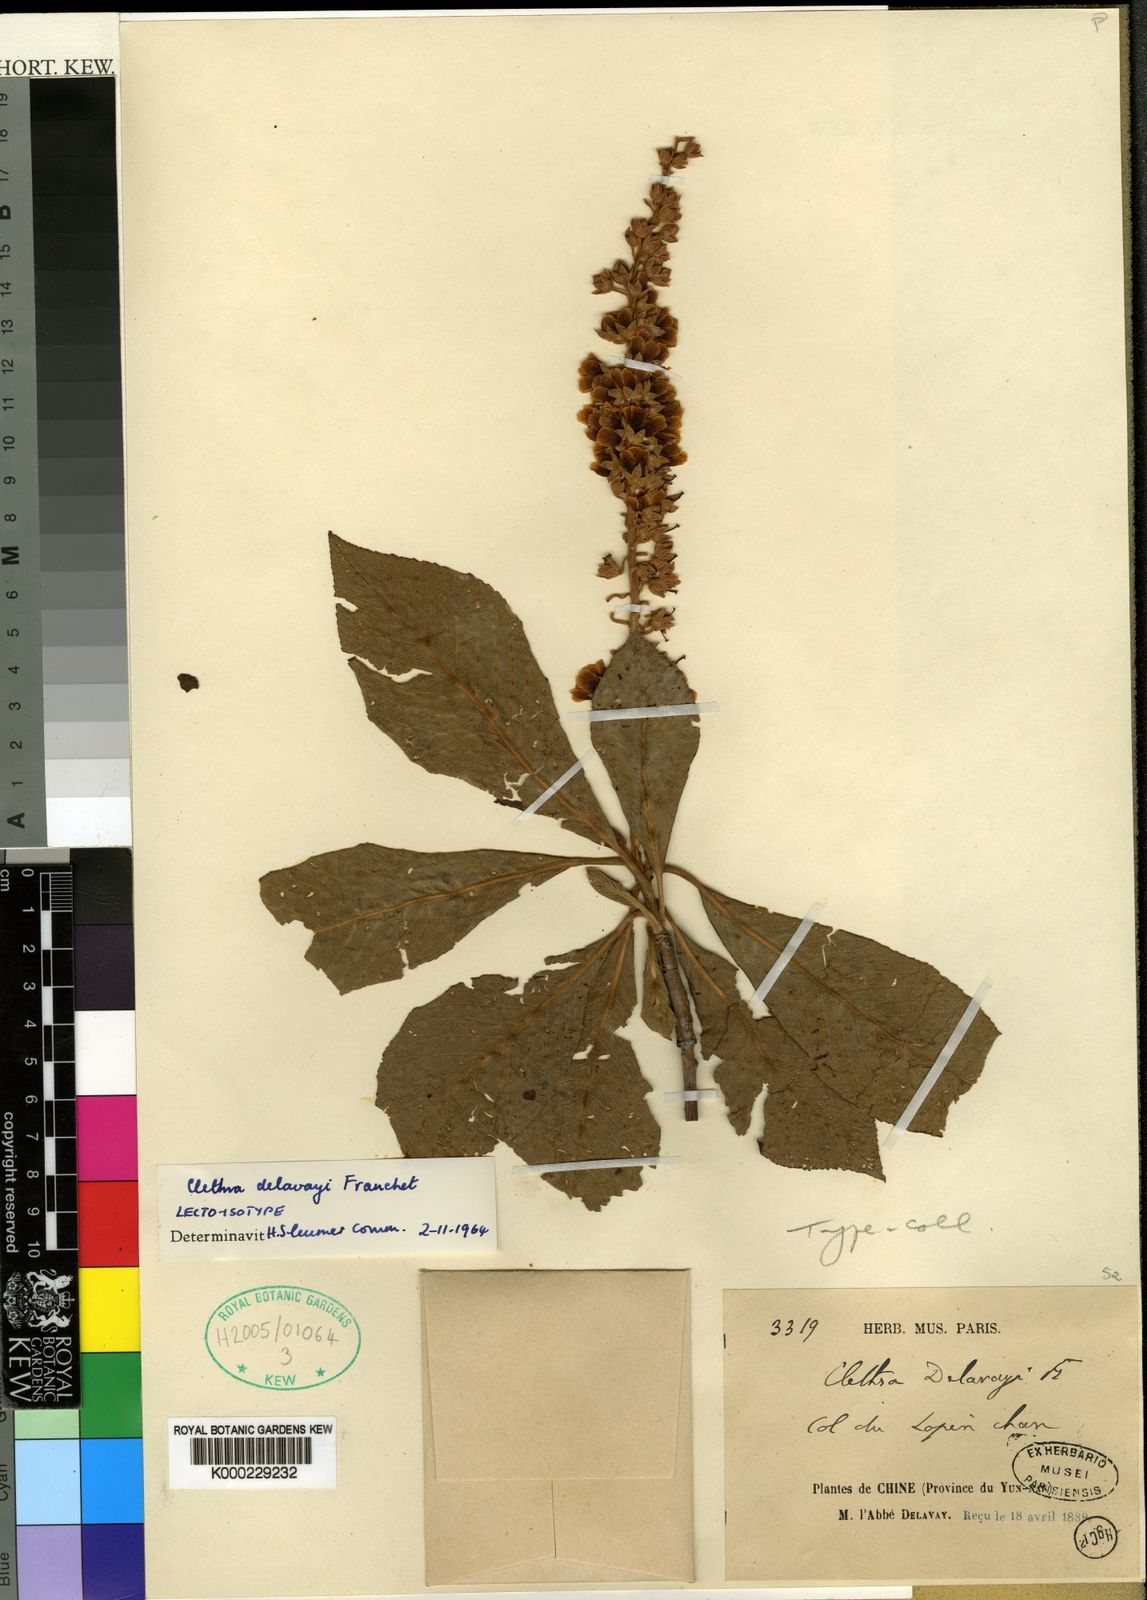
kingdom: Plantae
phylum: Tracheophyta
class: Magnoliopsida
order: Ericales
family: Clethraceae
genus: Clethra
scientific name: Clethra delavayi
